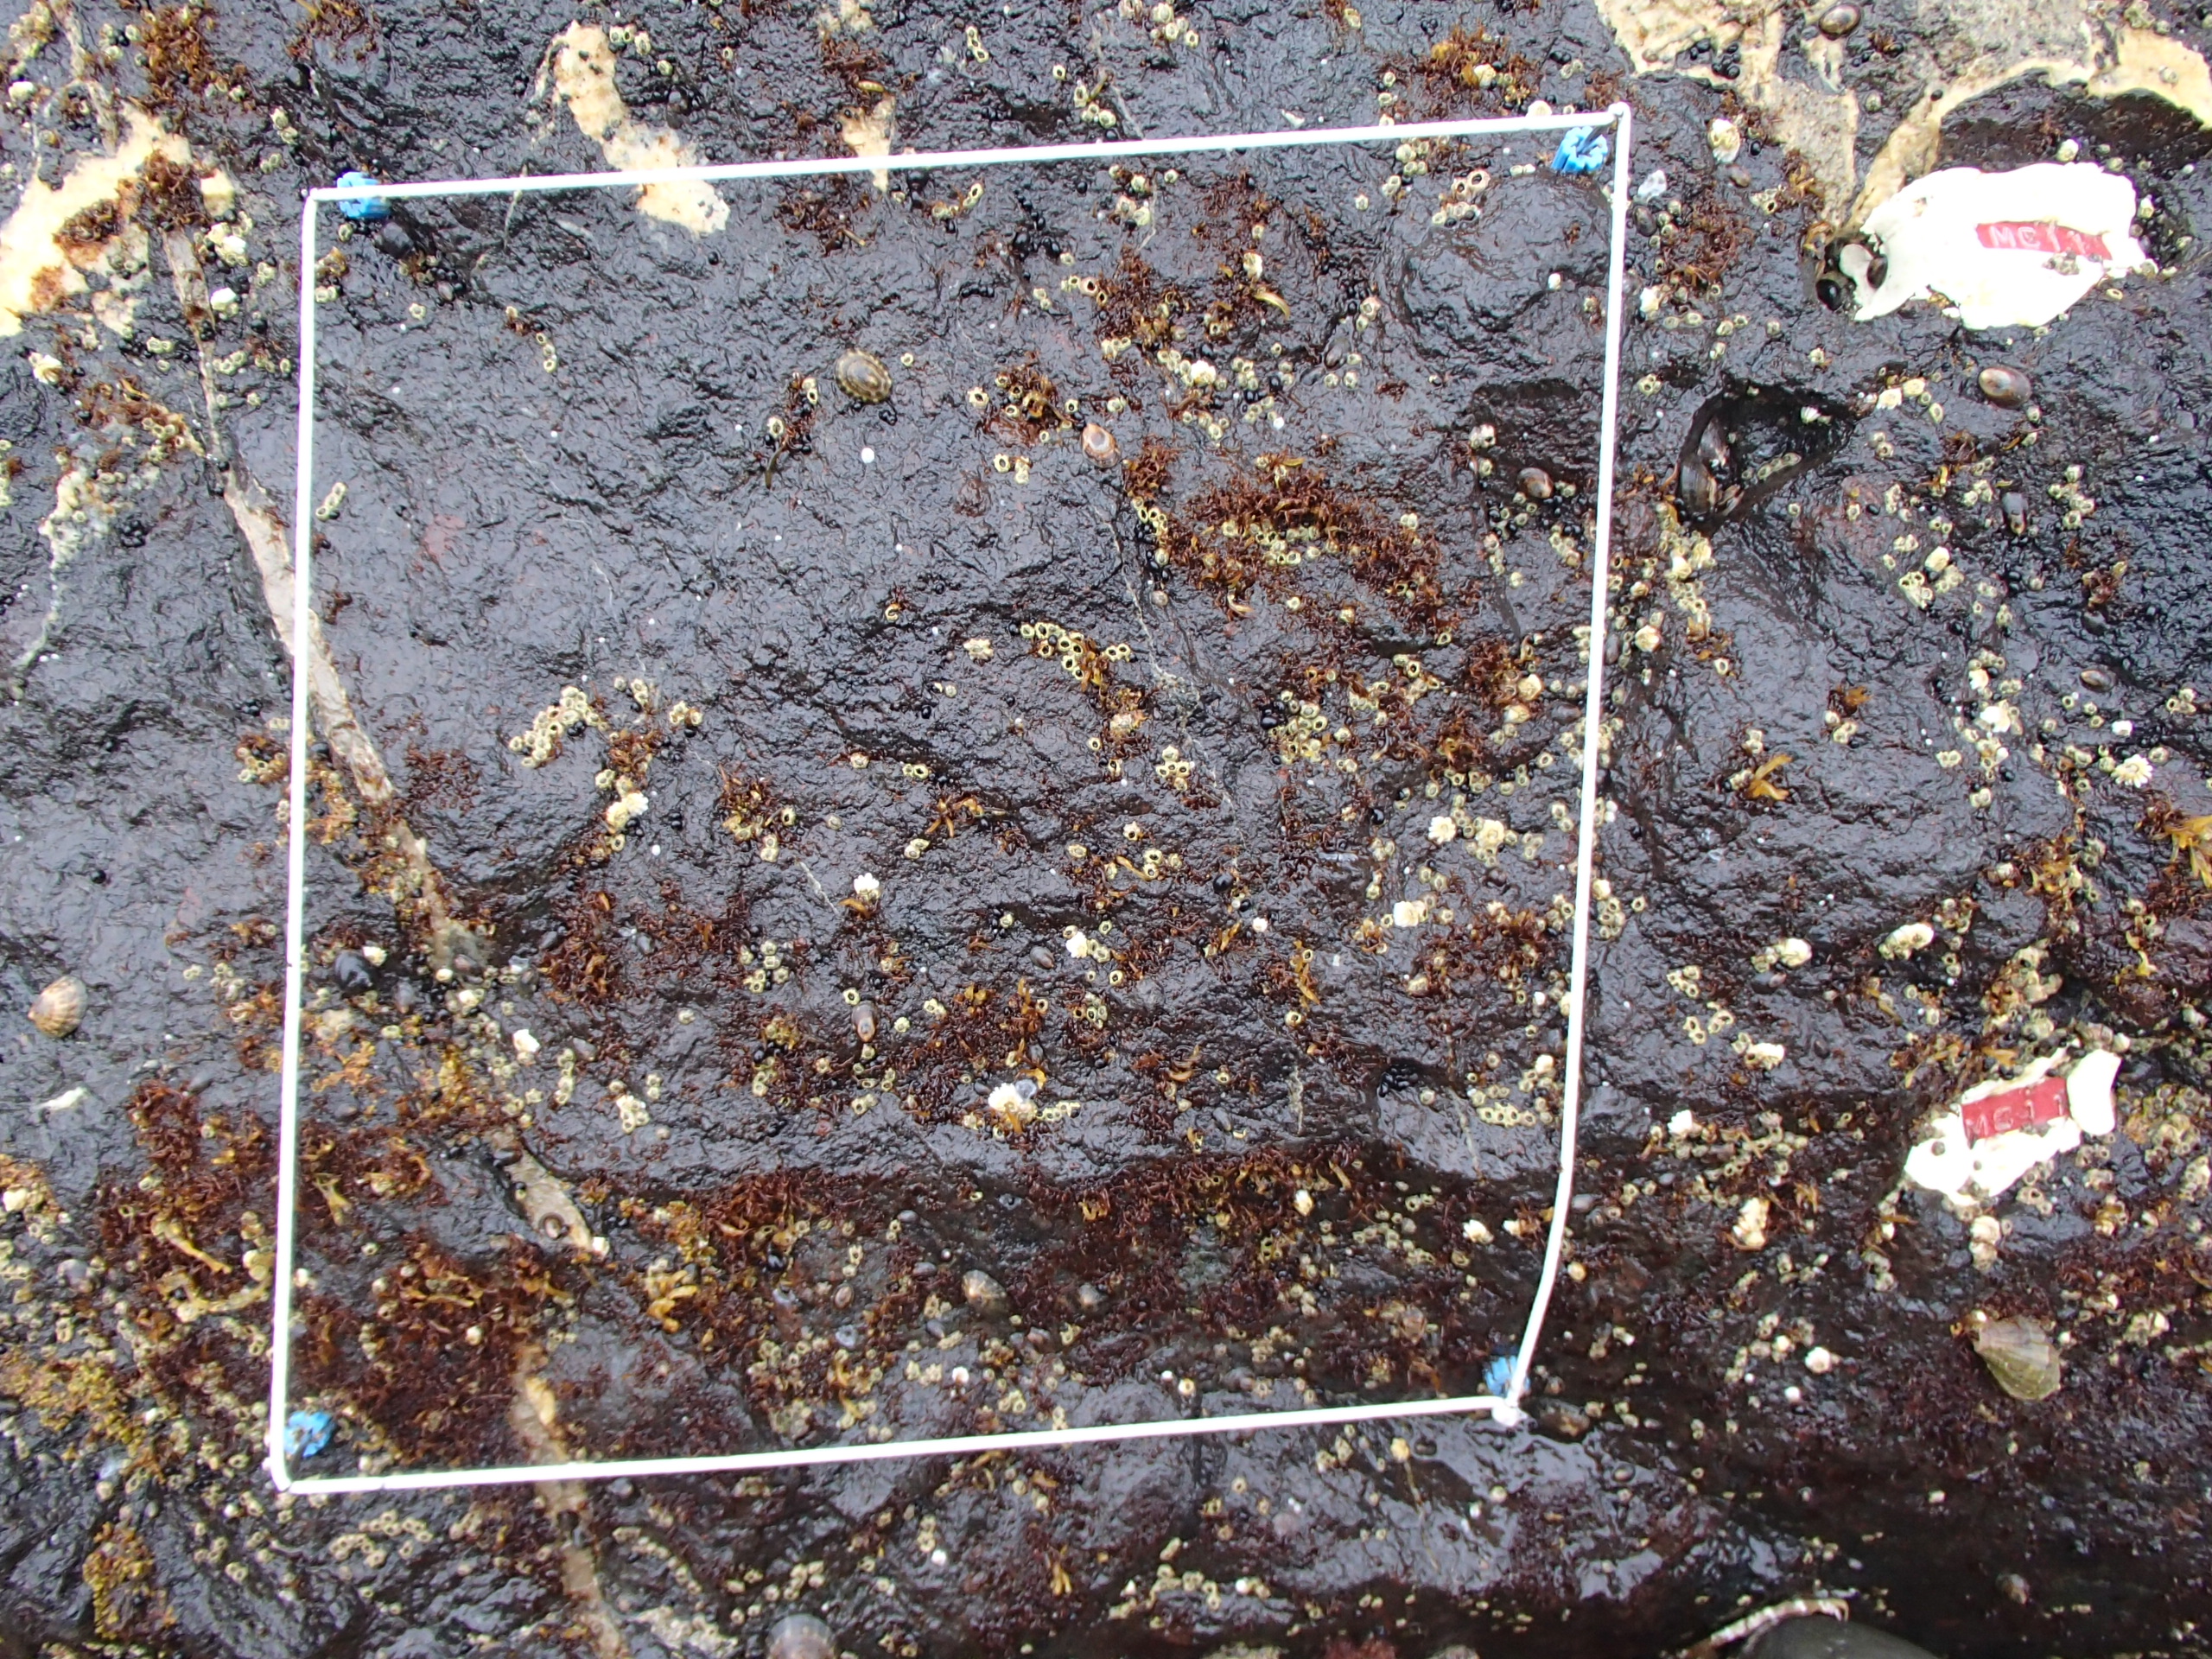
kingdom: Animalia
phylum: Arthropoda
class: Maxillopoda
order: Sessilia
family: Chthamalidae
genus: Chthamalus
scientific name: Chthamalus dalli
